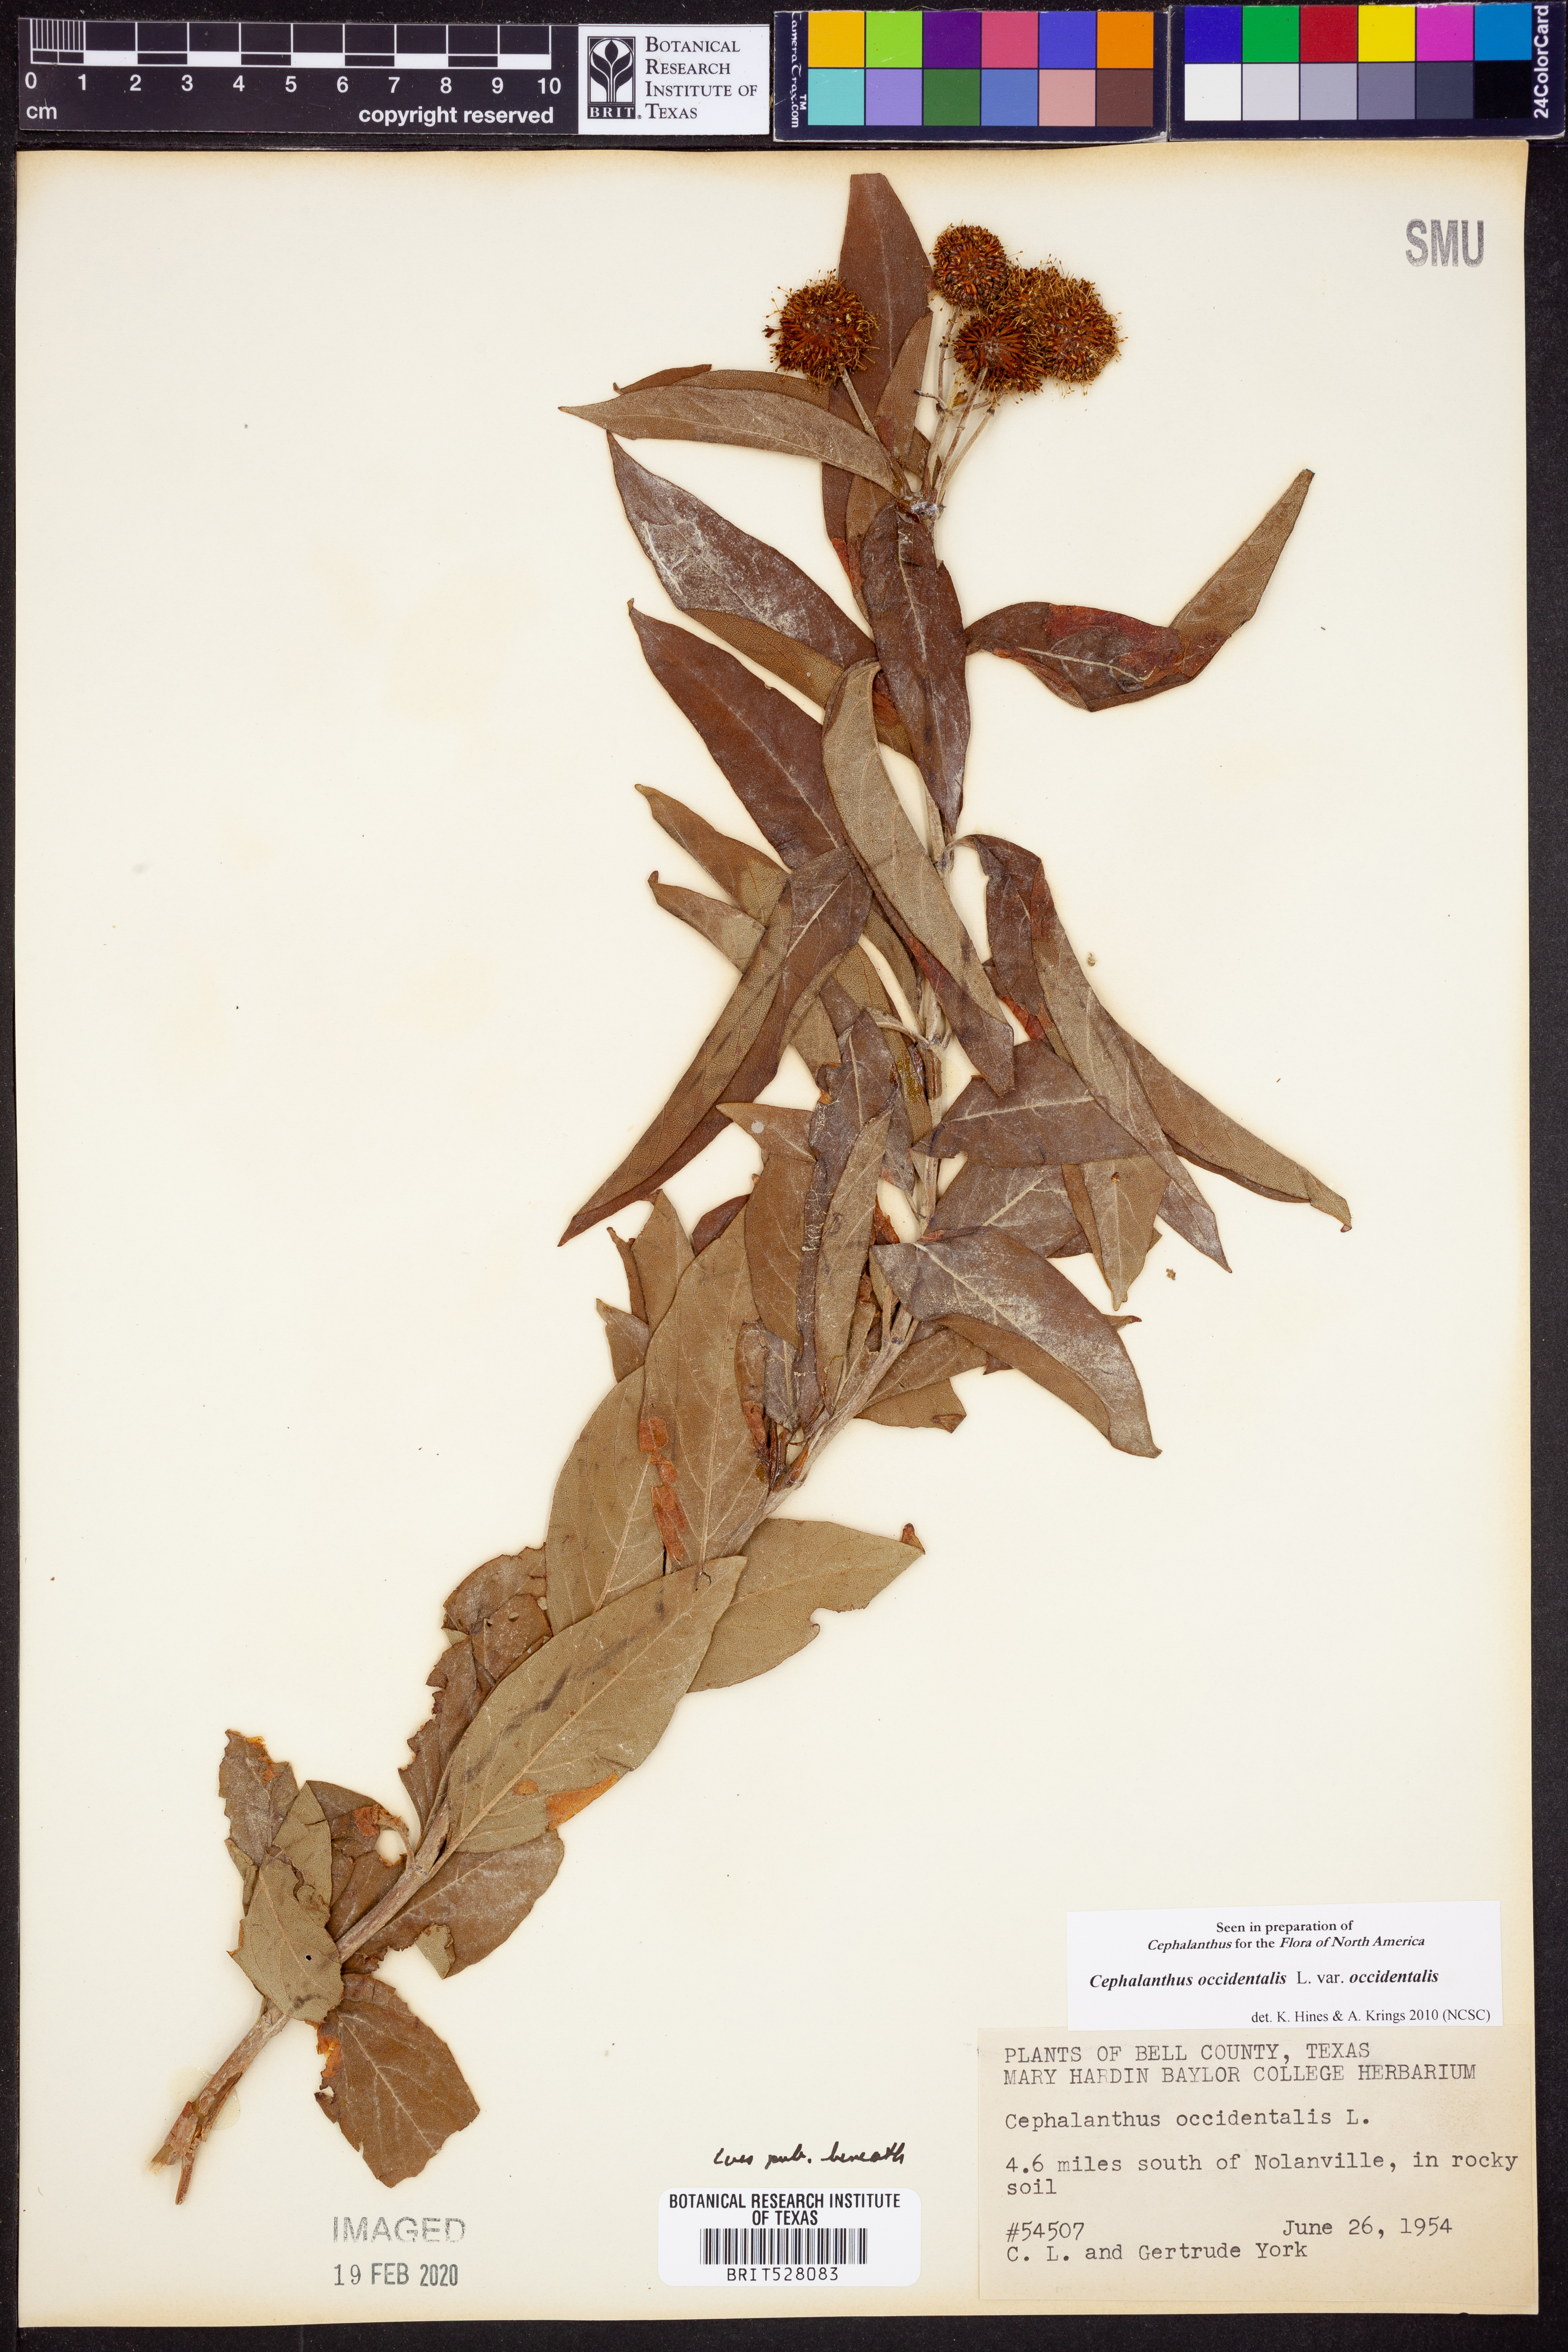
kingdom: Plantae
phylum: Tracheophyta
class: Magnoliopsida
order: Gentianales
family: Rubiaceae
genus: Cephalanthus
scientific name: Cephalanthus occidentalis
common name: Button-willow
